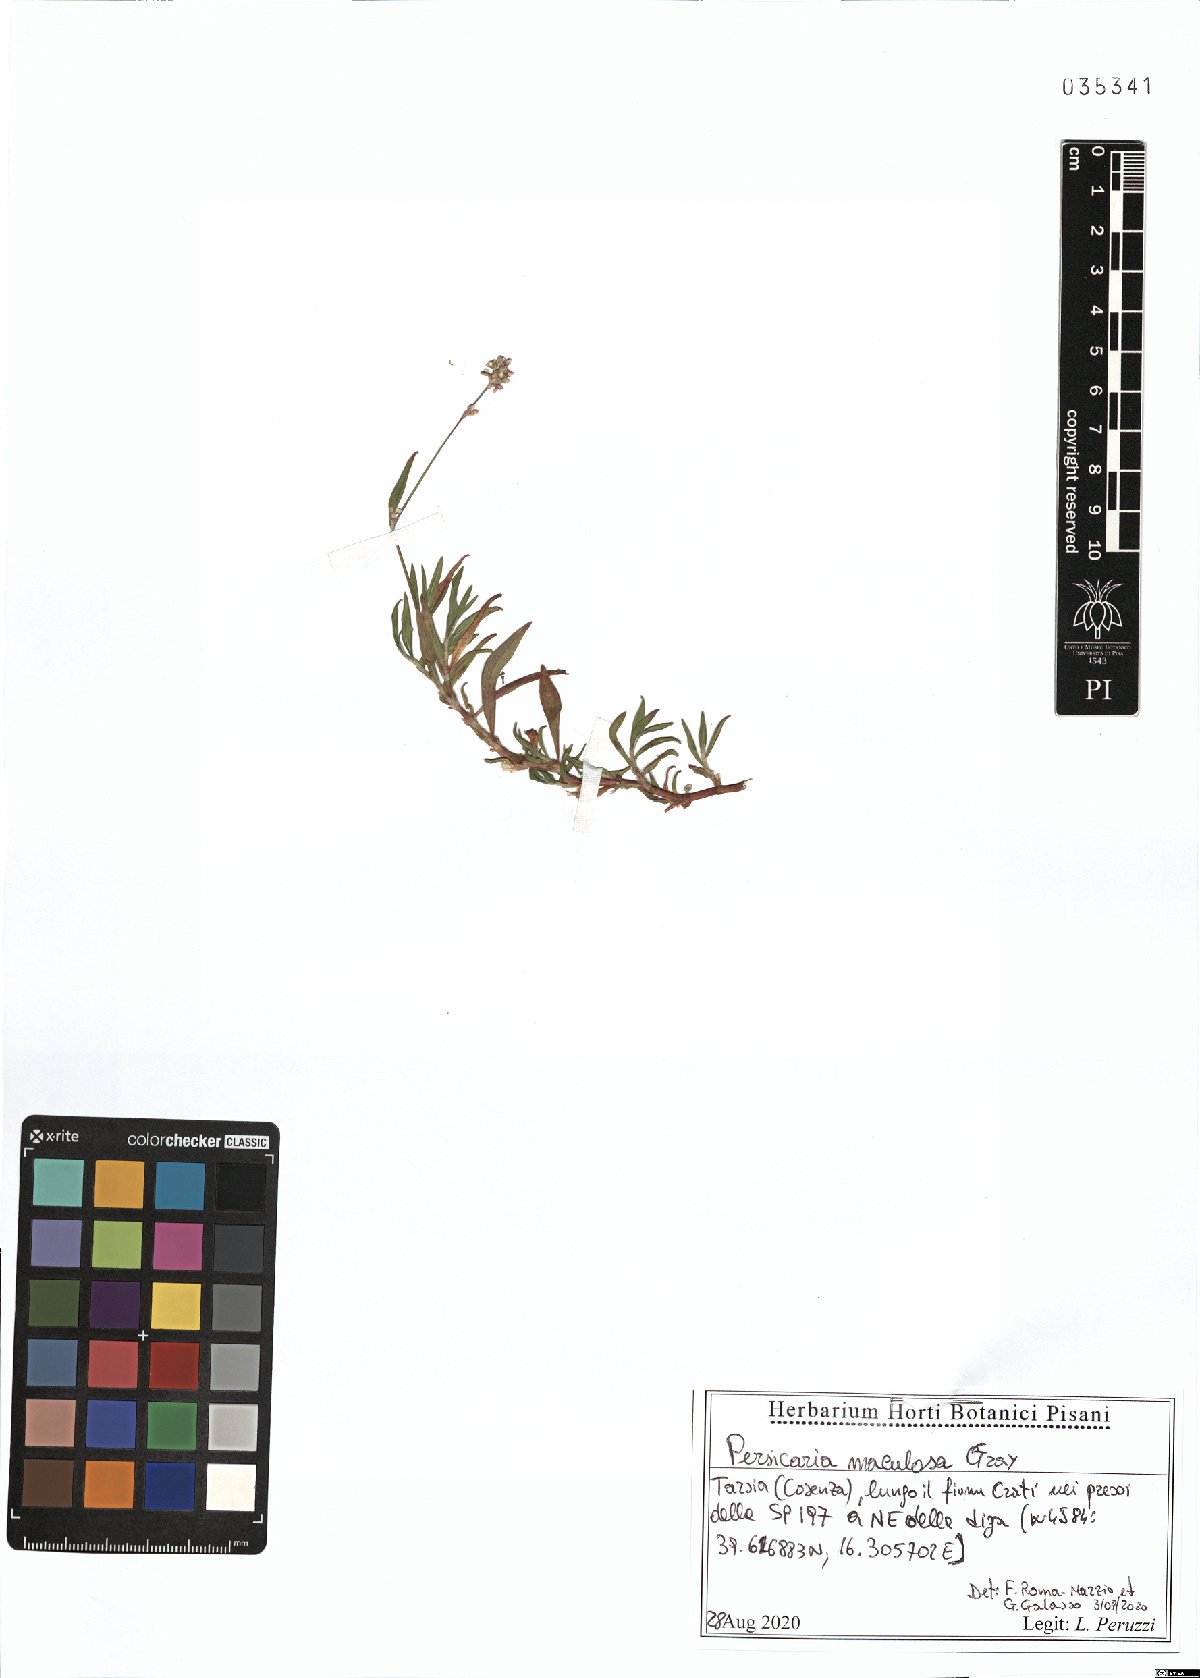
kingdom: Plantae
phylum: Tracheophyta
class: Magnoliopsida
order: Caryophyllales
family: Polygonaceae
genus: Persicaria
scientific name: Persicaria maculosa
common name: Redshank
